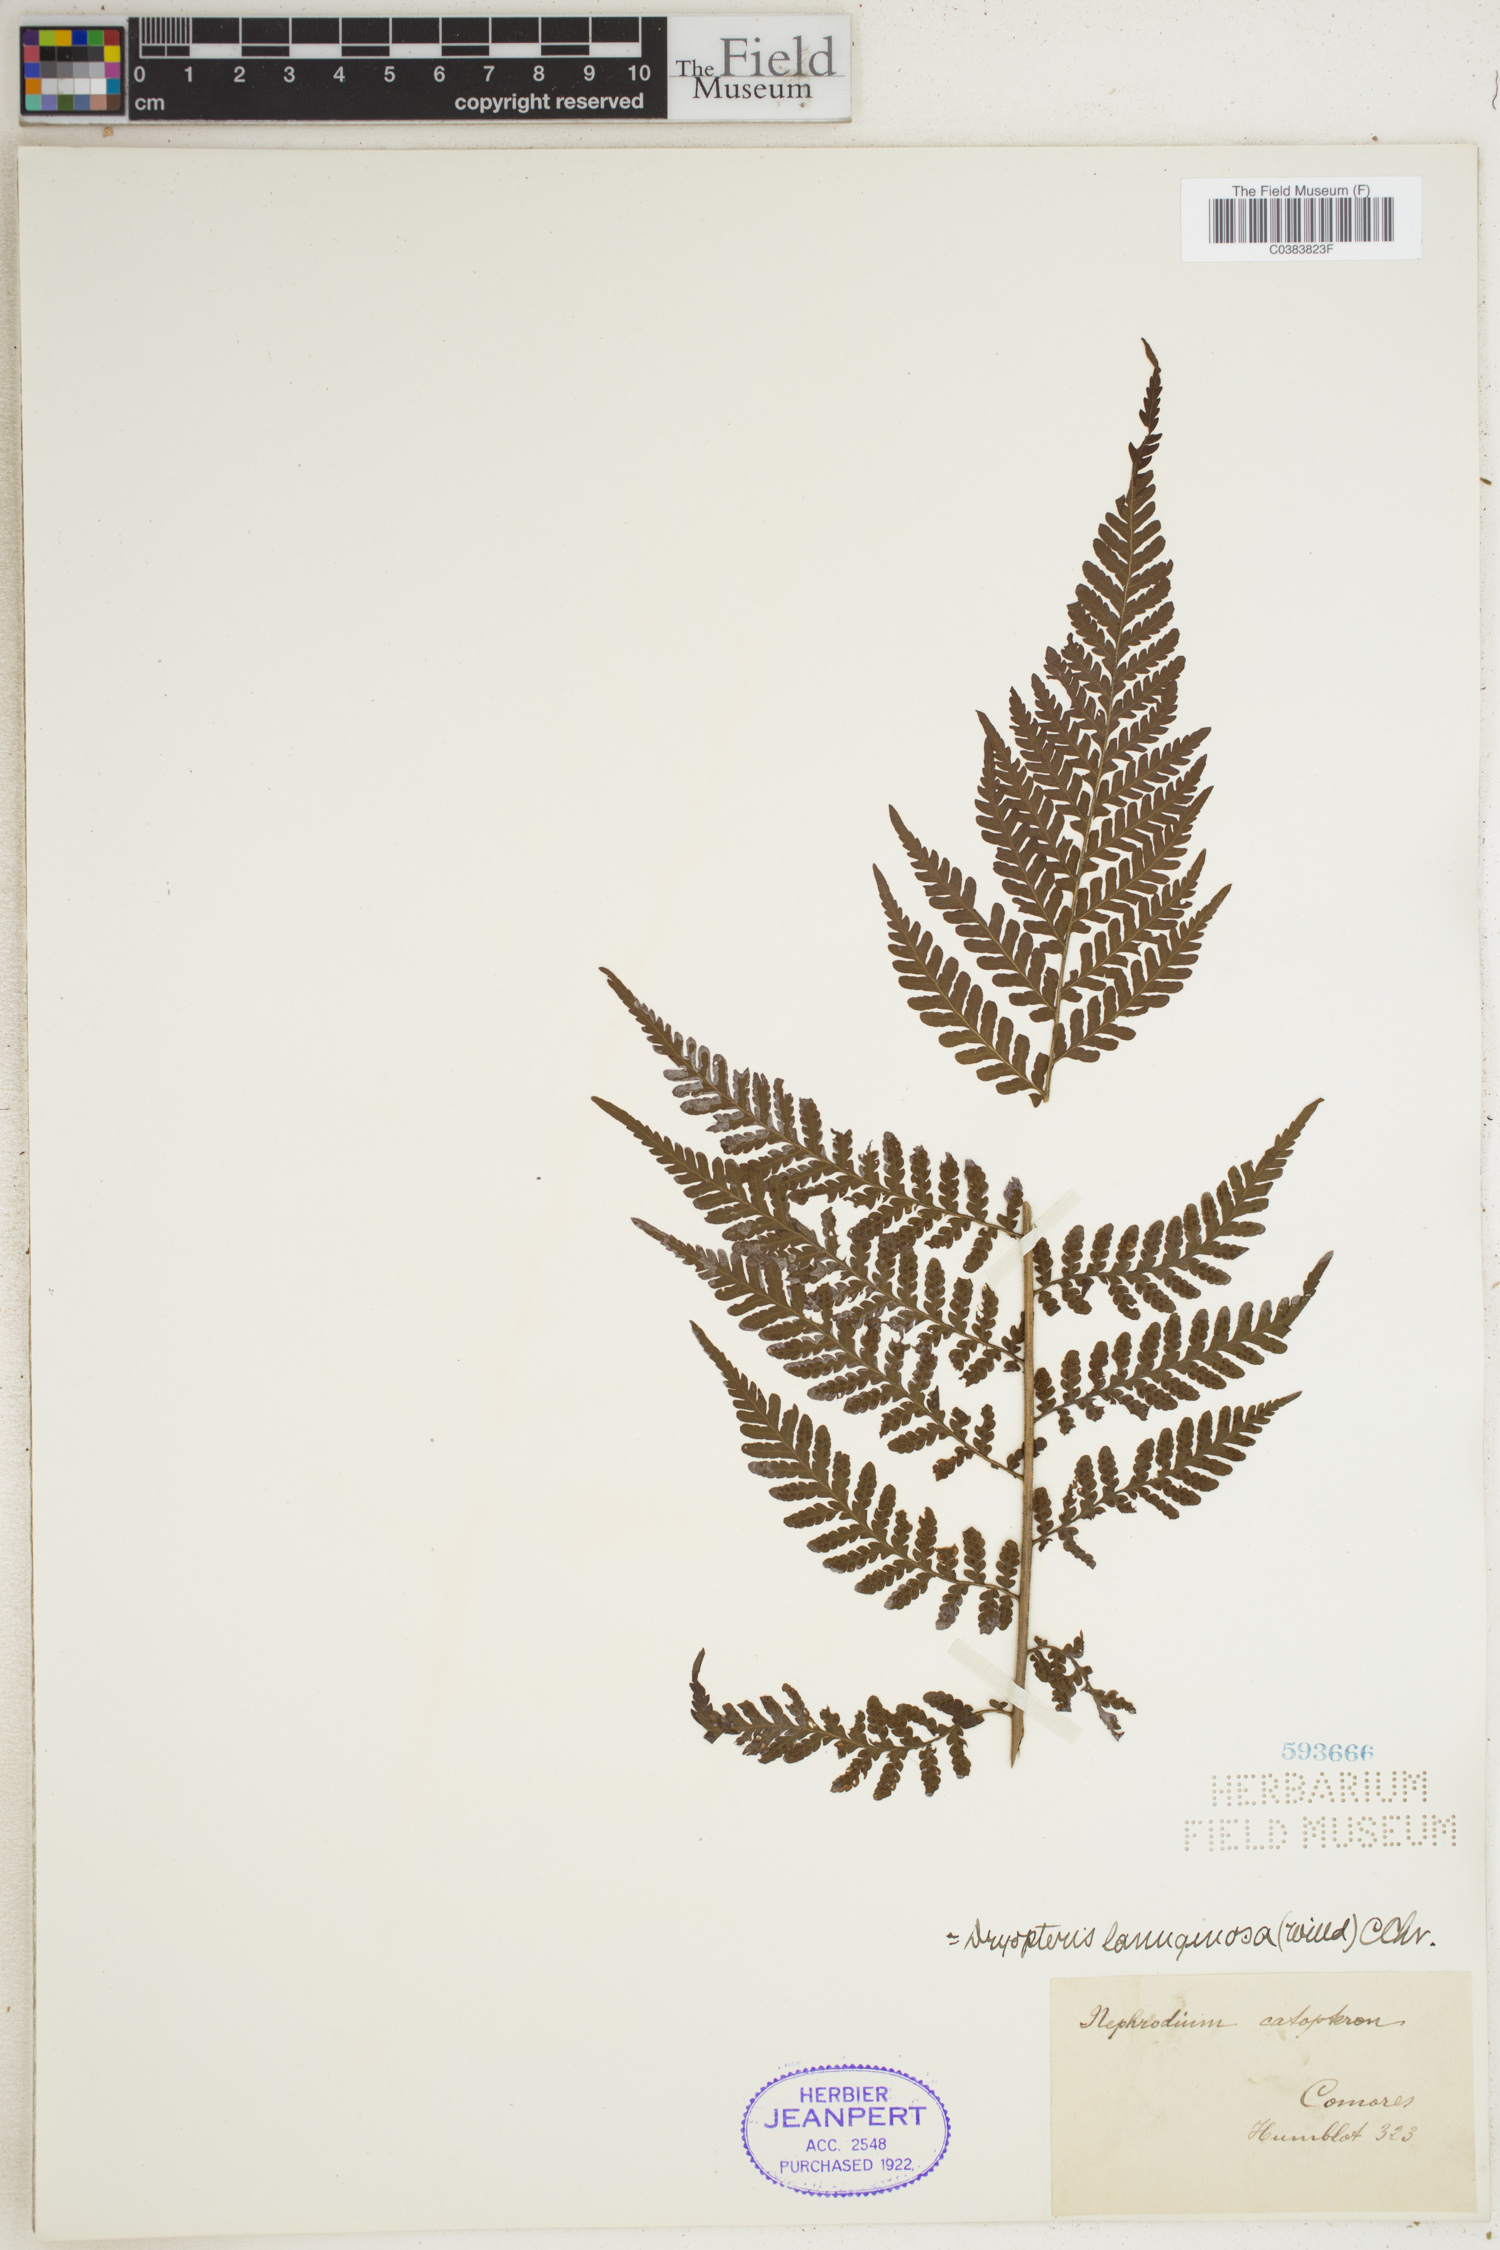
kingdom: Plantae
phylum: Tracheophyta
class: Polypodiopsida
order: Polypodiales
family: Dryopteridaceae
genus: Megalastrum
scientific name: Megalastrum lanuginosum
